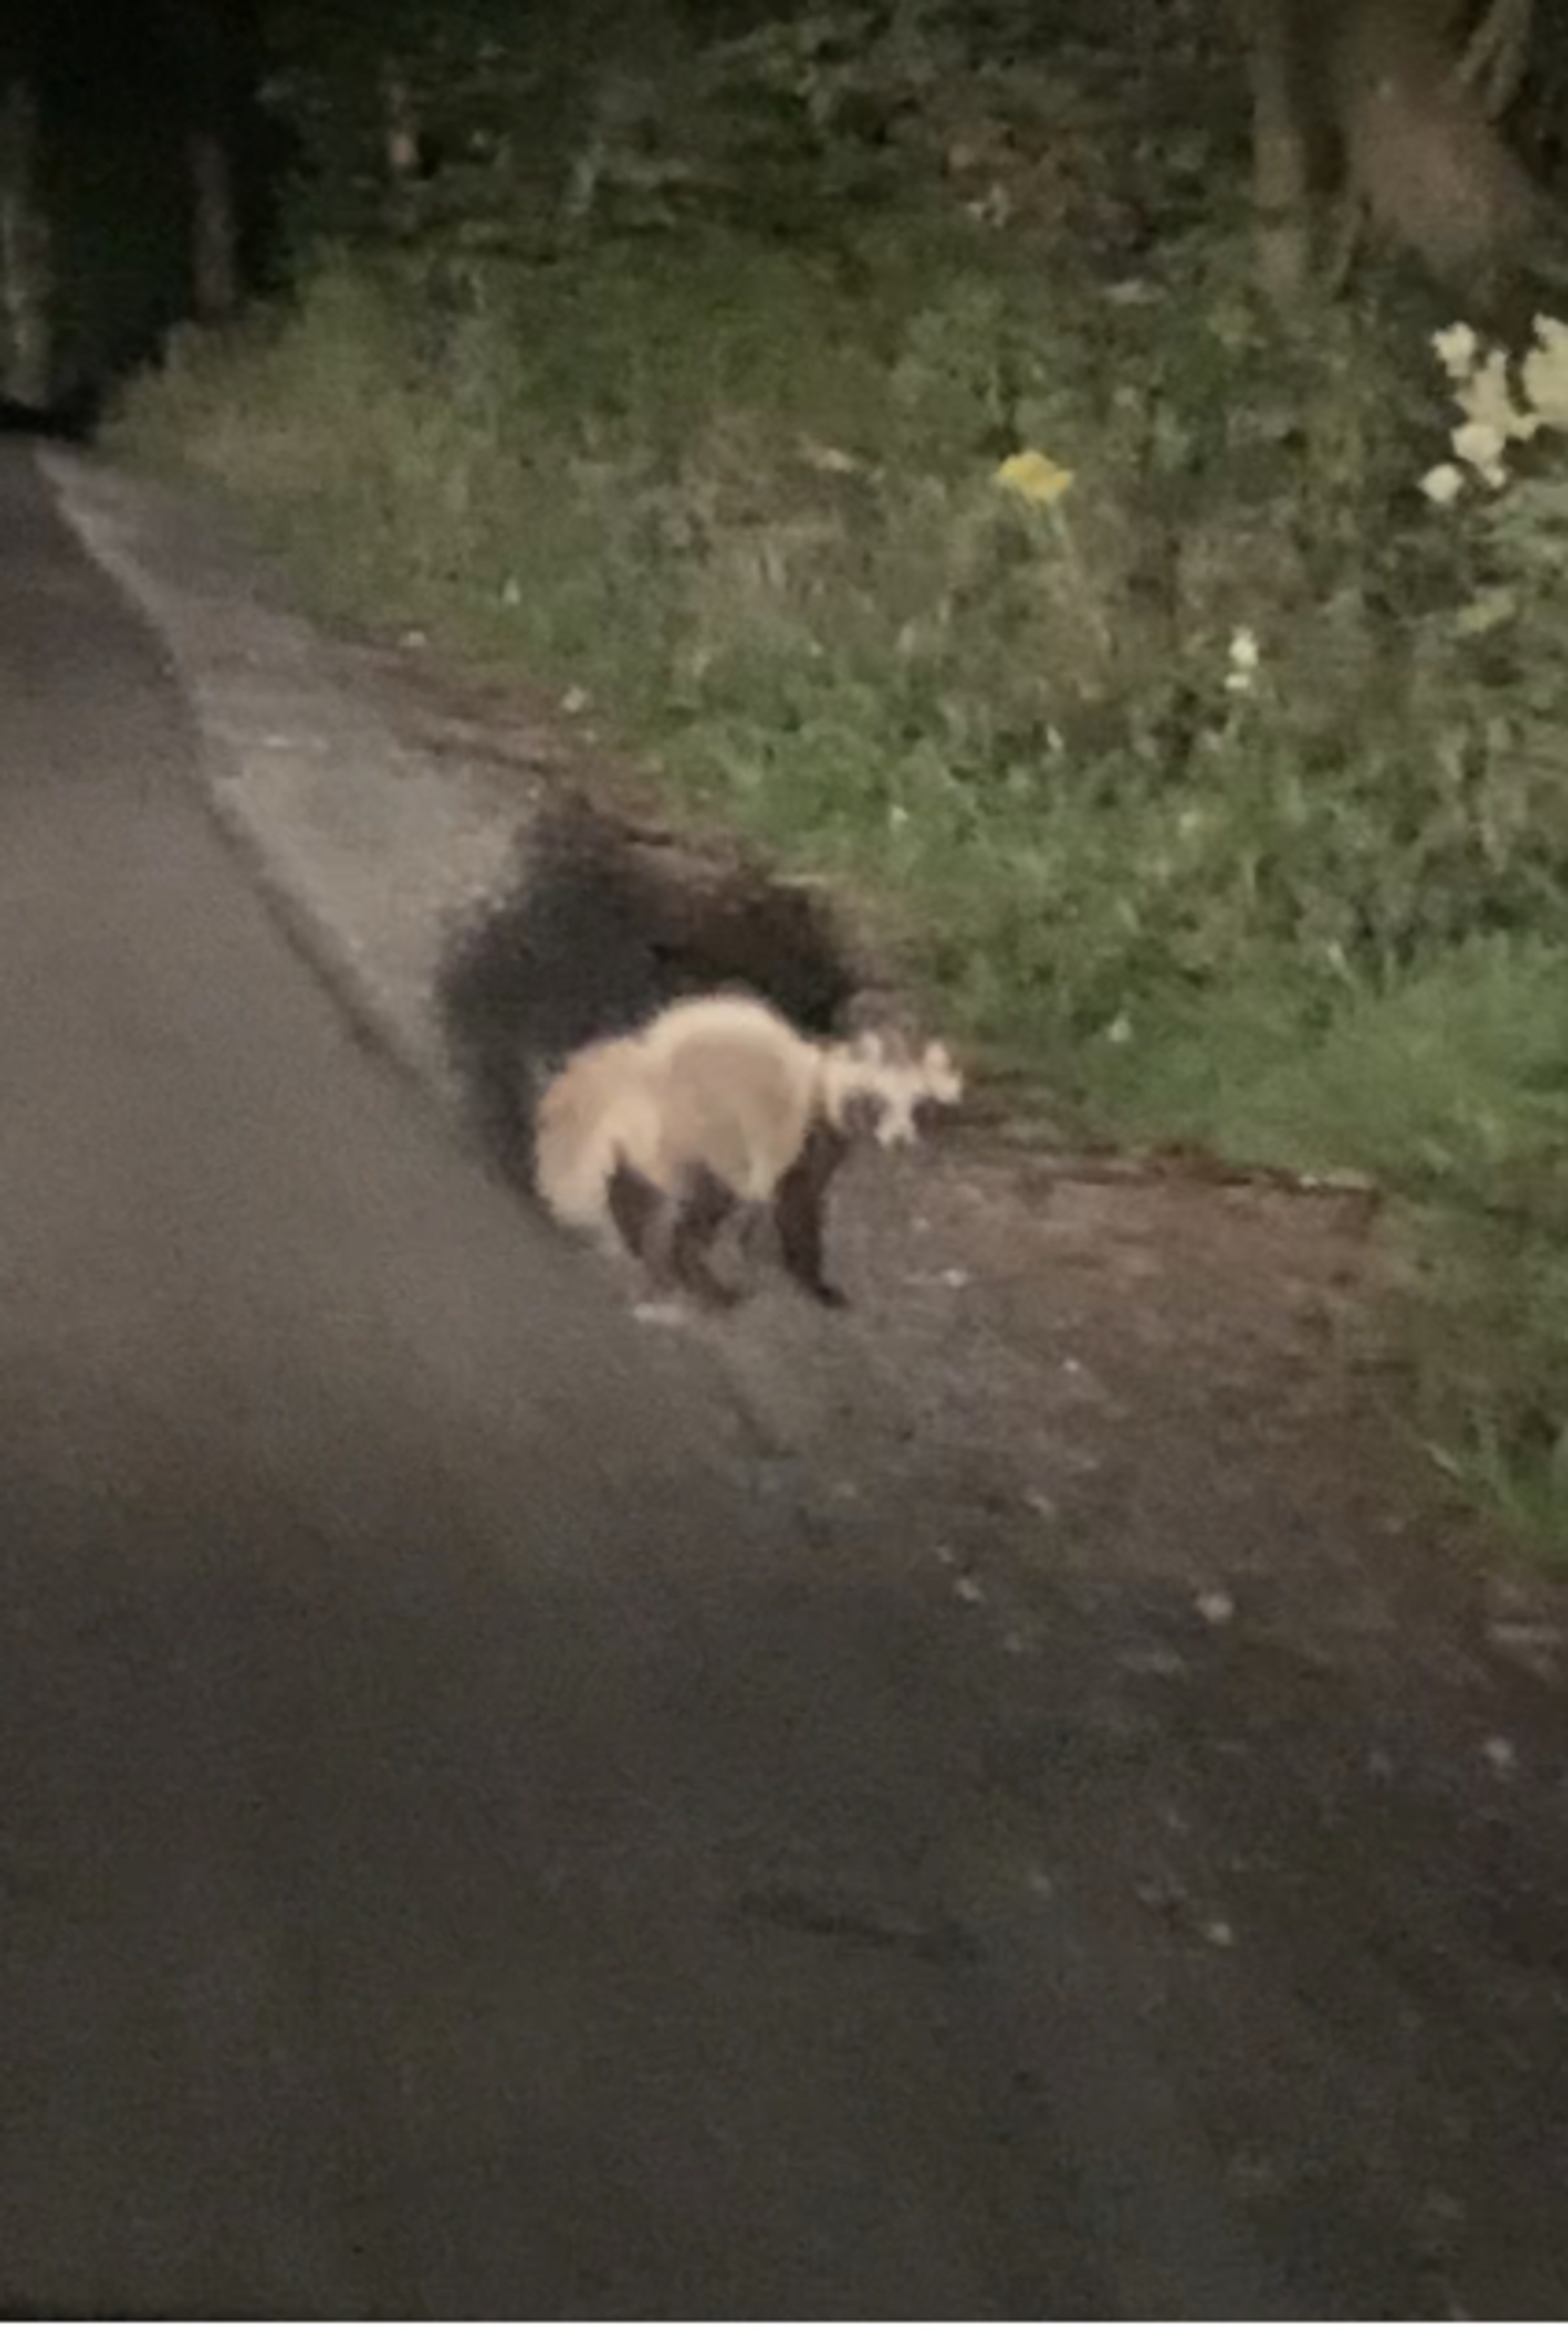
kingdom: Animalia
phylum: Chordata
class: Mammalia
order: Carnivora
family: Canidae
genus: Nyctereutes
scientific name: Nyctereutes procyonoides
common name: Mårhund
